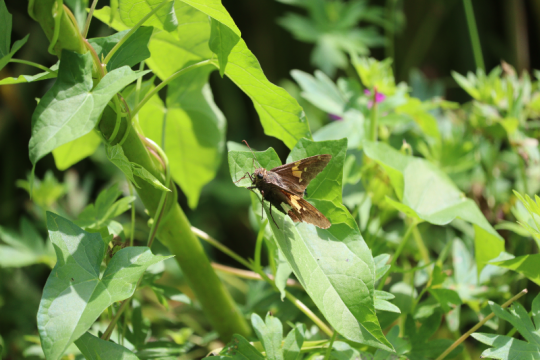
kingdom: Animalia
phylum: Arthropoda
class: Insecta
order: Lepidoptera
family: Hesperiidae
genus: Epargyreus
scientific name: Epargyreus clarus
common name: Silver-spotted Skipper
